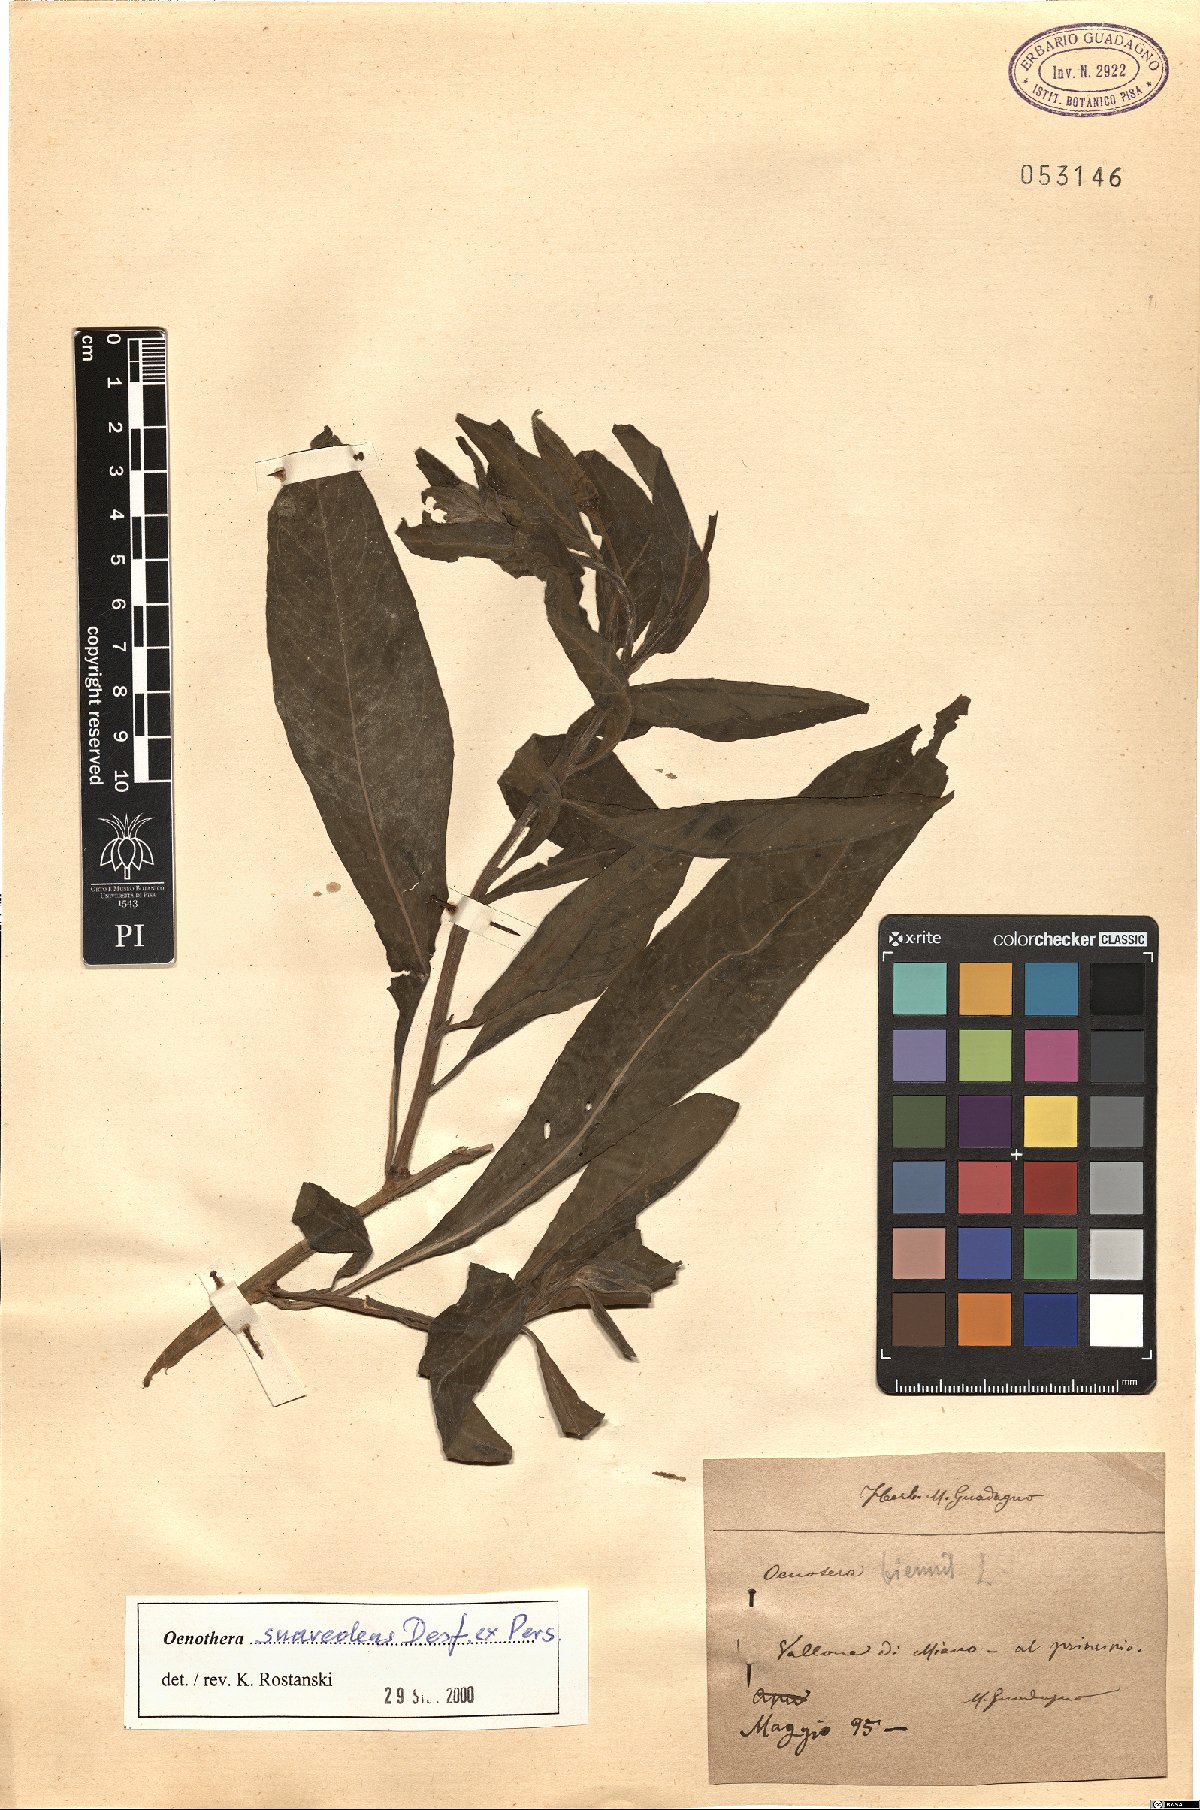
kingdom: Plantae
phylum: Tracheophyta
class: Magnoliopsida
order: Myrtales
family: Onagraceae
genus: Oenothera
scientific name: Oenothera suaveolens
